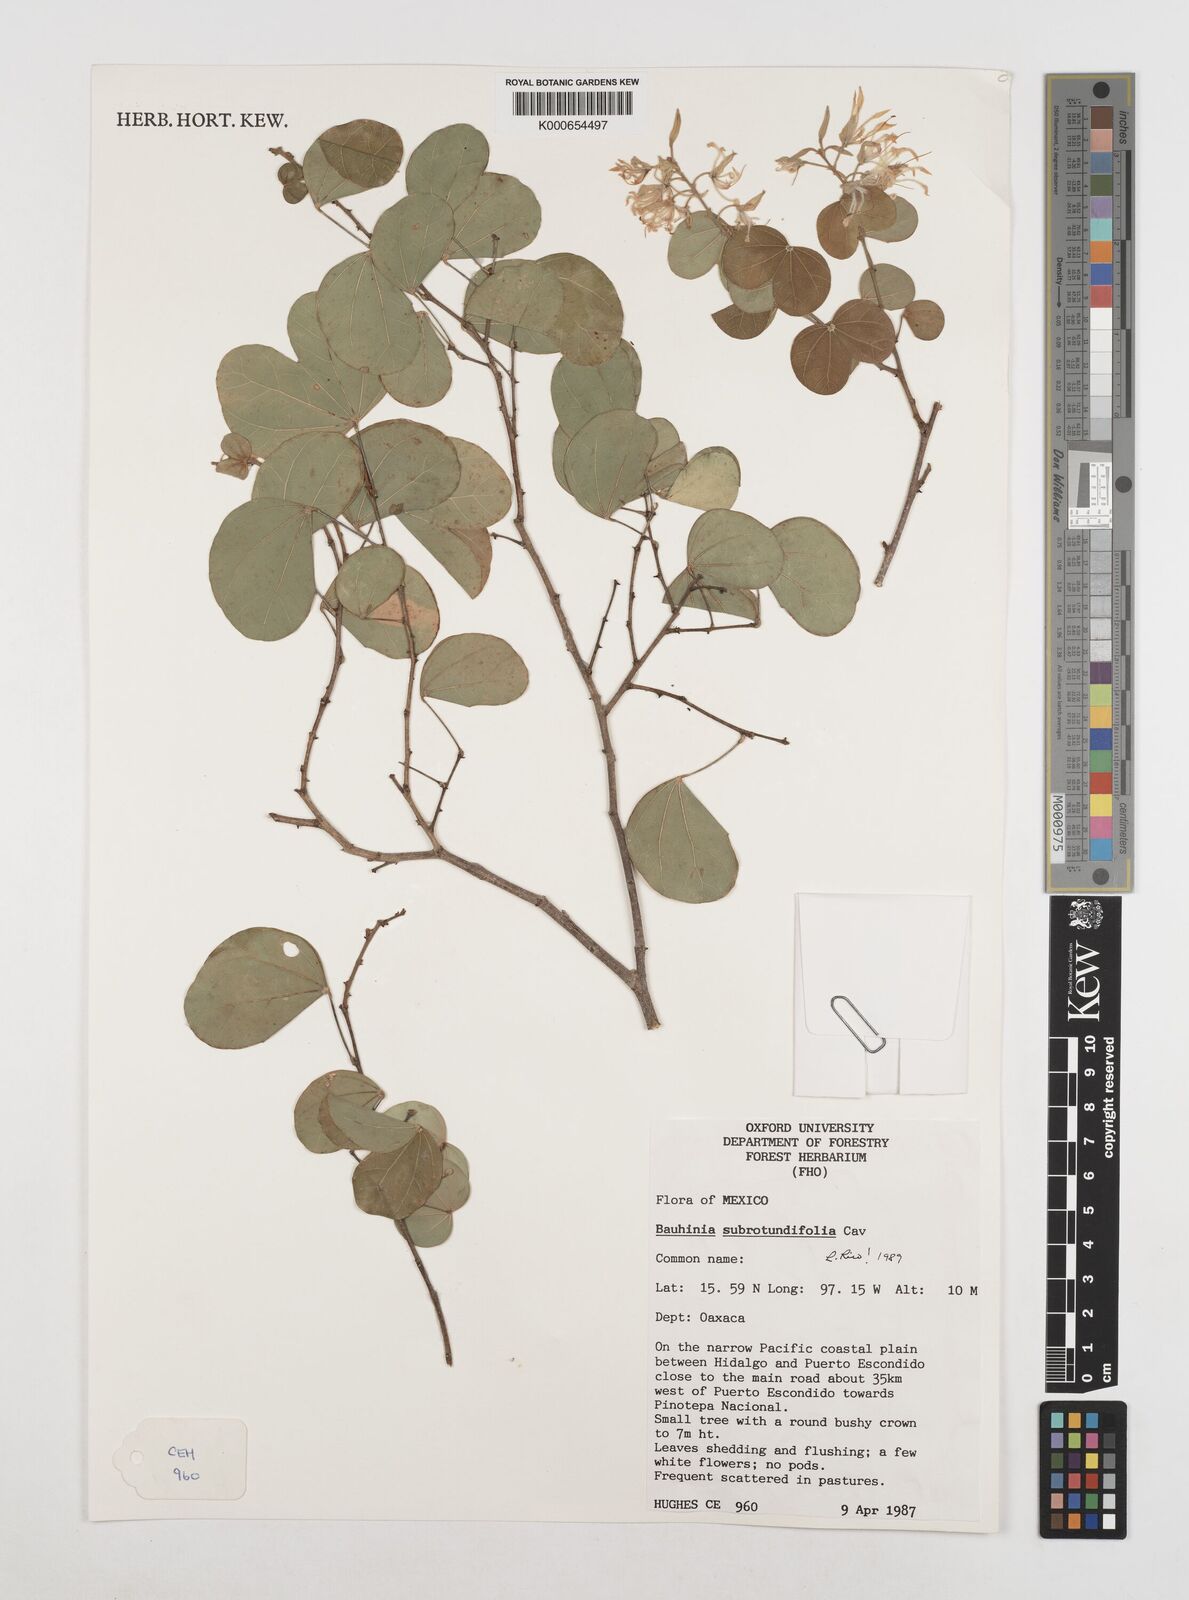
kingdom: Plantae
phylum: Tracheophyta
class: Magnoliopsida
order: Fabales
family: Fabaceae
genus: Bauhinia
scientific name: Bauhinia subrotundifolia
